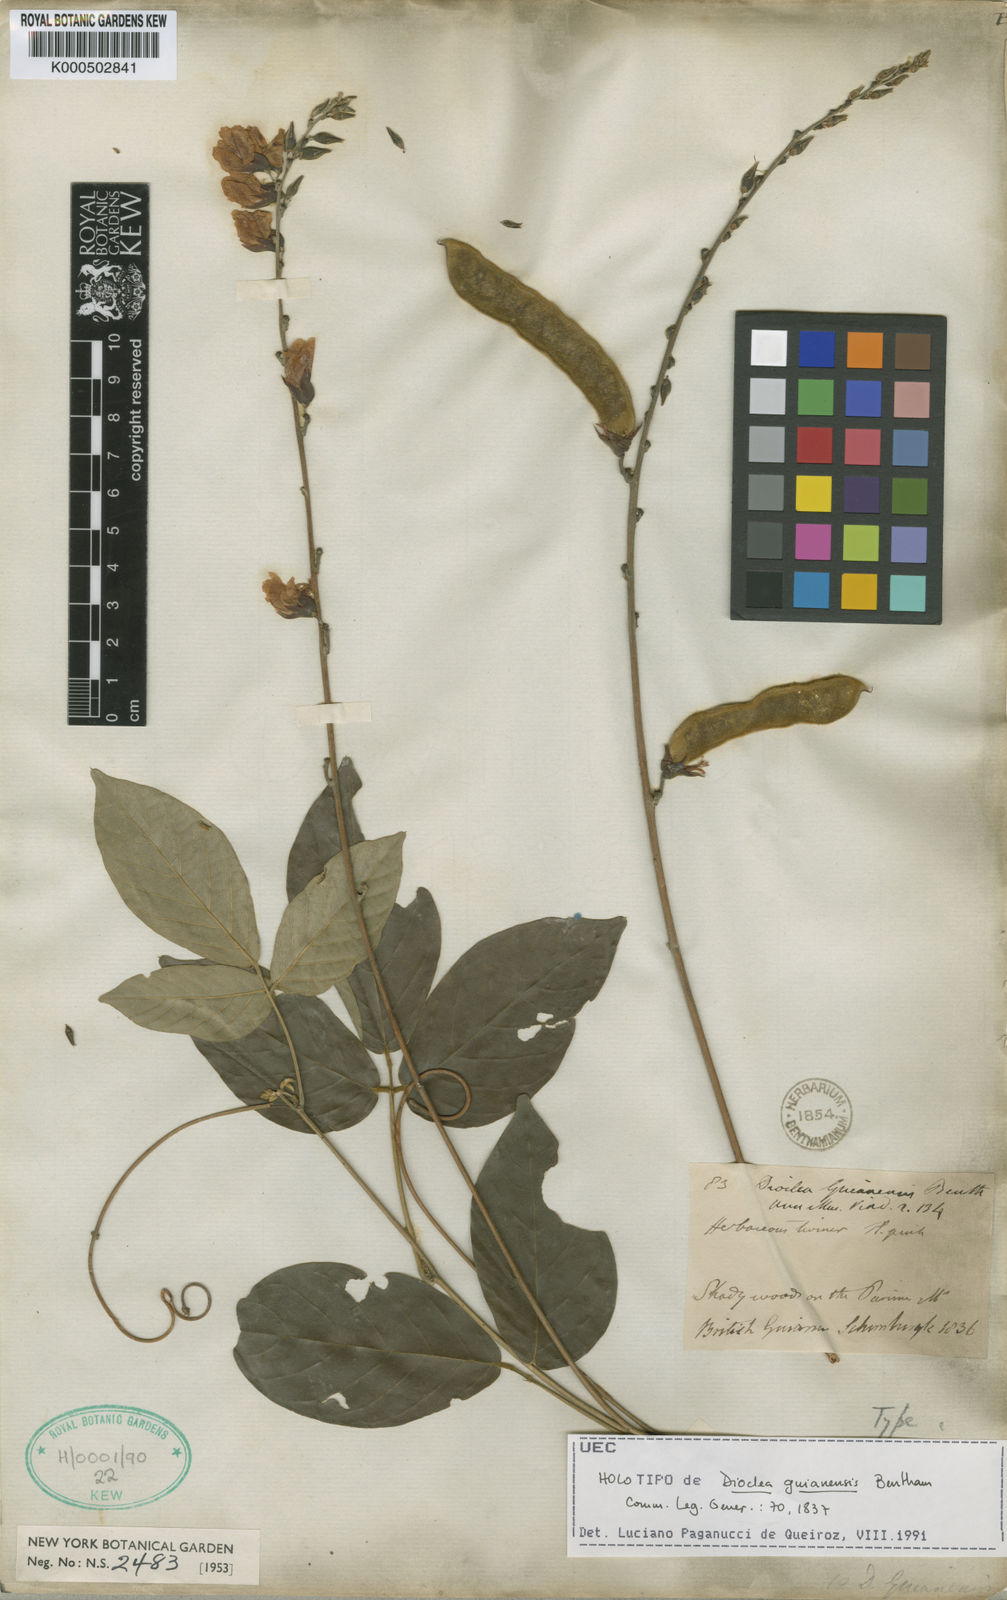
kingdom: Plantae
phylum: Tracheophyta
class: Magnoliopsida
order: Fabales
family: Fabaceae
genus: Dioclea
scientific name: Dioclea guianensis
